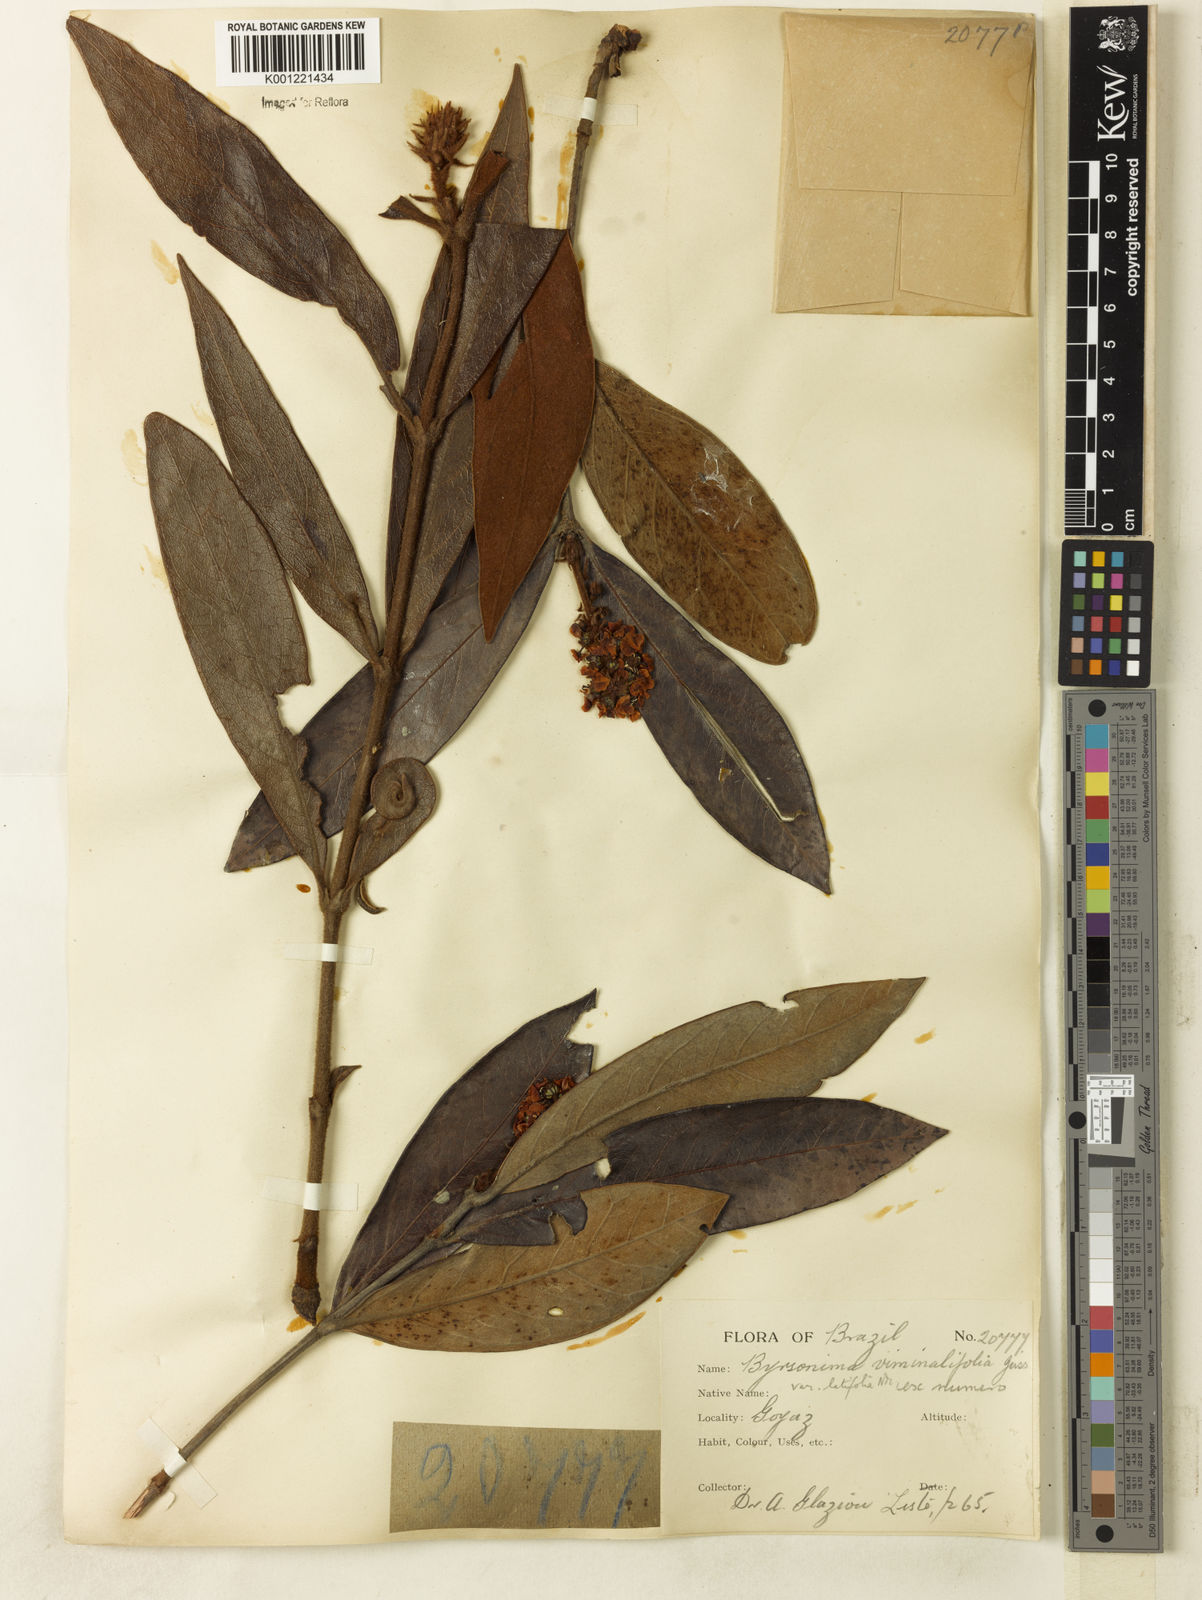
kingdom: Plantae
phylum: Tracheophyta
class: Magnoliopsida
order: Malpighiales
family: Malpighiaceae
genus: Byrsonima
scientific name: Byrsonima viminifolia
